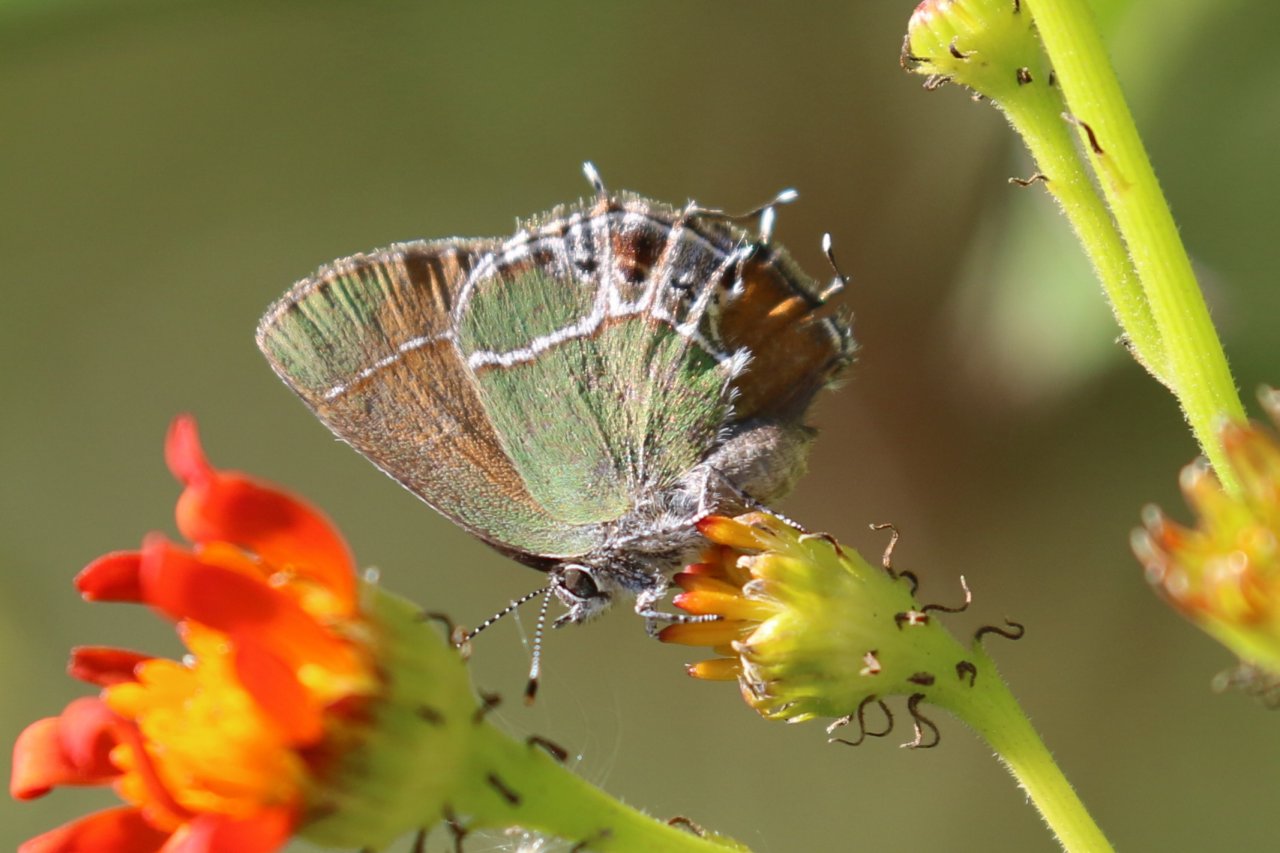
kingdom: Animalia
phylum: Arthropoda
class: Insecta
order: Lepidoptera
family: Lycaenidae
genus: Xamia
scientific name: Xamia xami
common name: Xami Hairstreak
